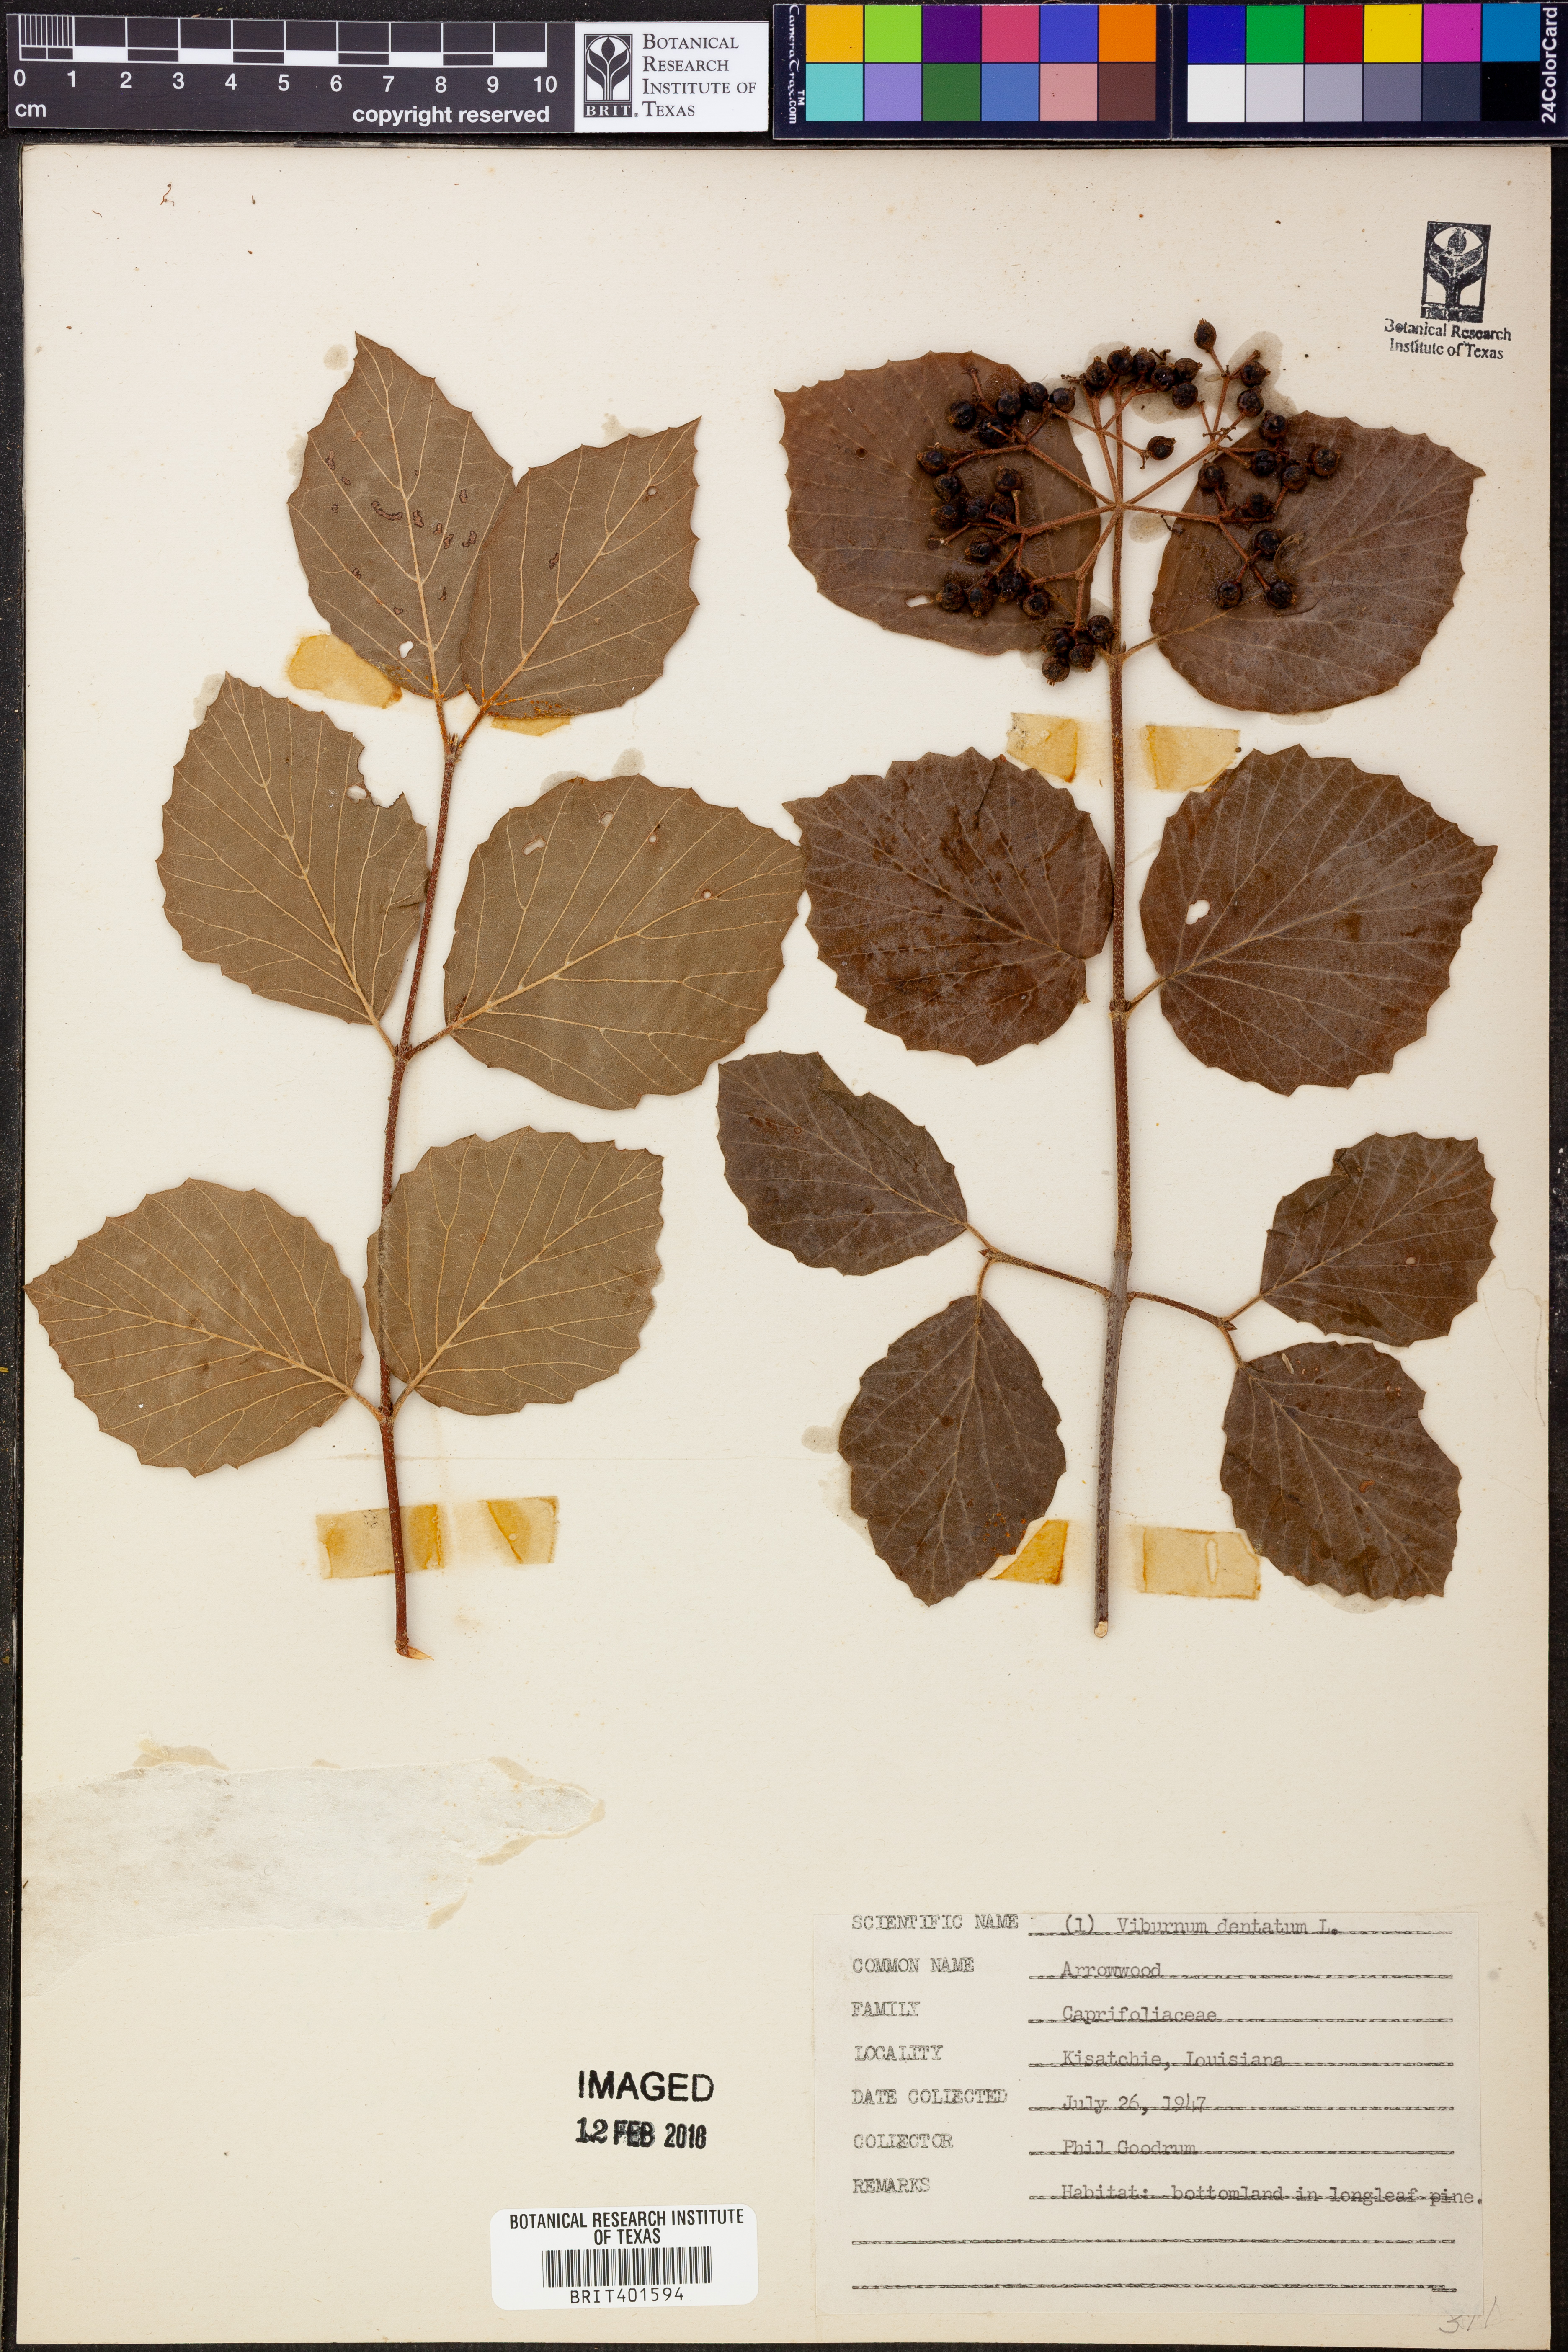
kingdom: Plantae
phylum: Tracheophyta
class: Magnoliopsida
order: Dipsacales
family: Viburnaceae
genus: Viburnum
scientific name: Viburnum dentatum
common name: Arrow-wood
